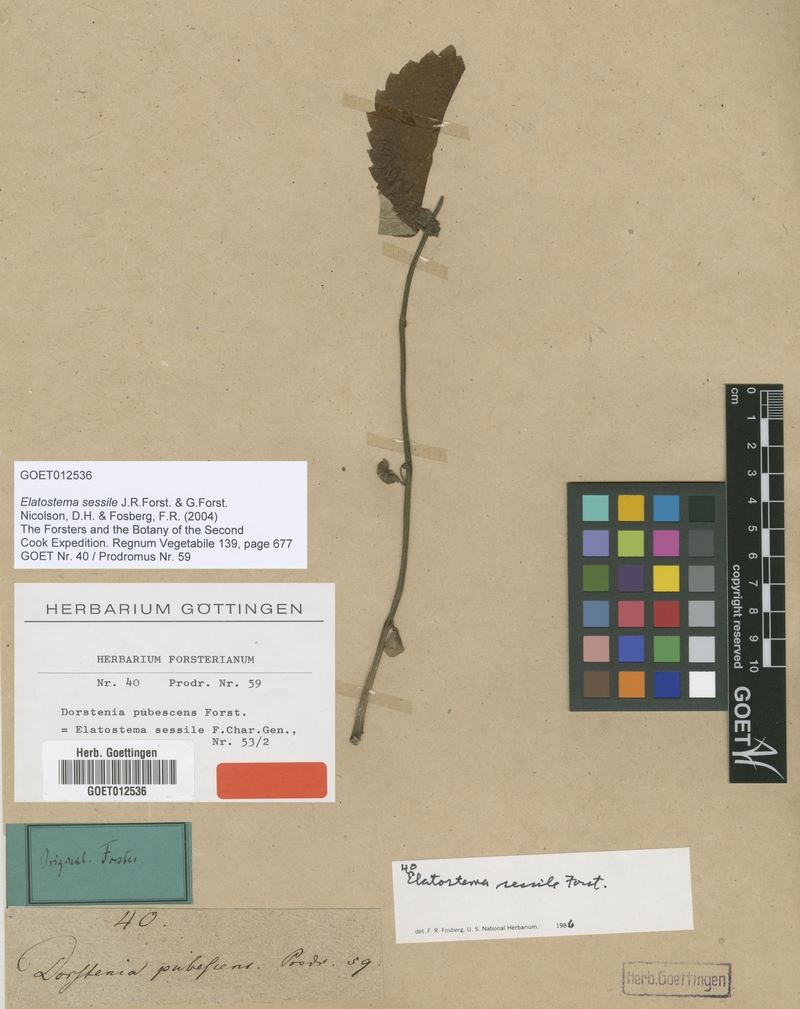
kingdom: Plantae
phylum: Tracheophyta
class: Magnoliopsida
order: Rosales
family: Urticaceae
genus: Elatostema
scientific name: Elatostema sessile
